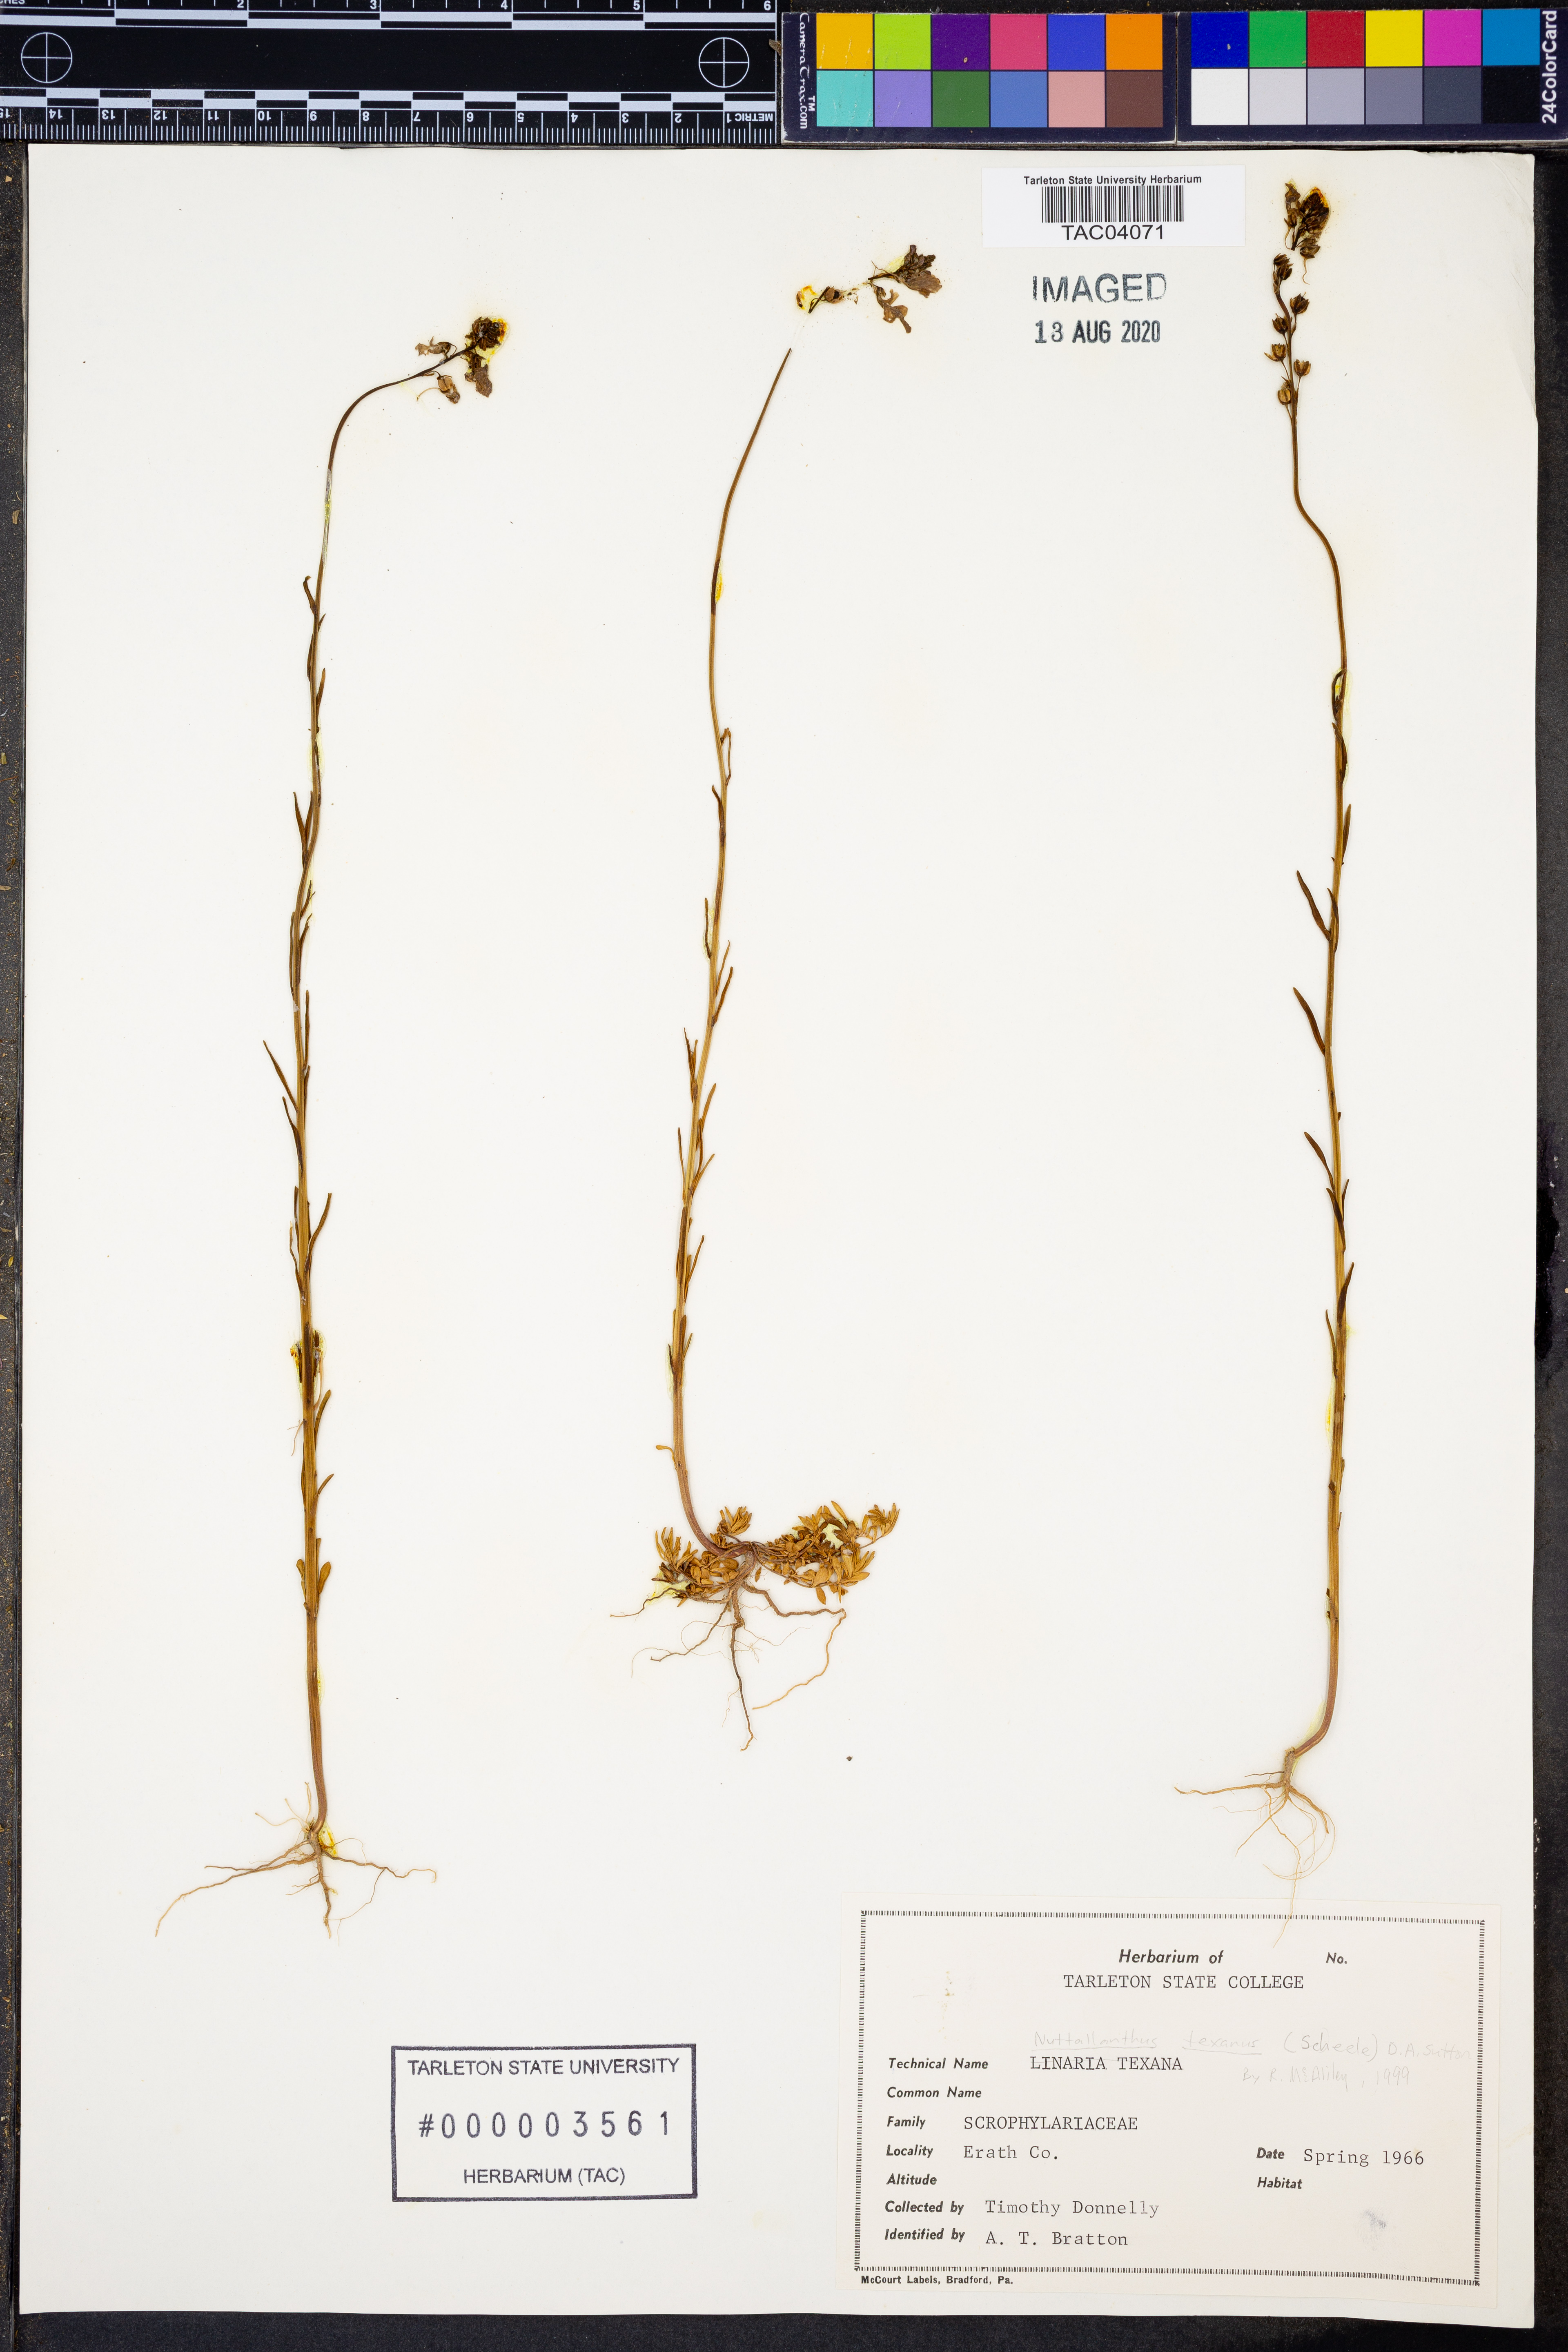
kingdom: Plantae
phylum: Tracheophyta
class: Magnoliopsida
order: Lamiales
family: Plantaginaceae
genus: Nuttallanthus
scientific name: Nuttallanthus texanus
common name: Texas toadflax
